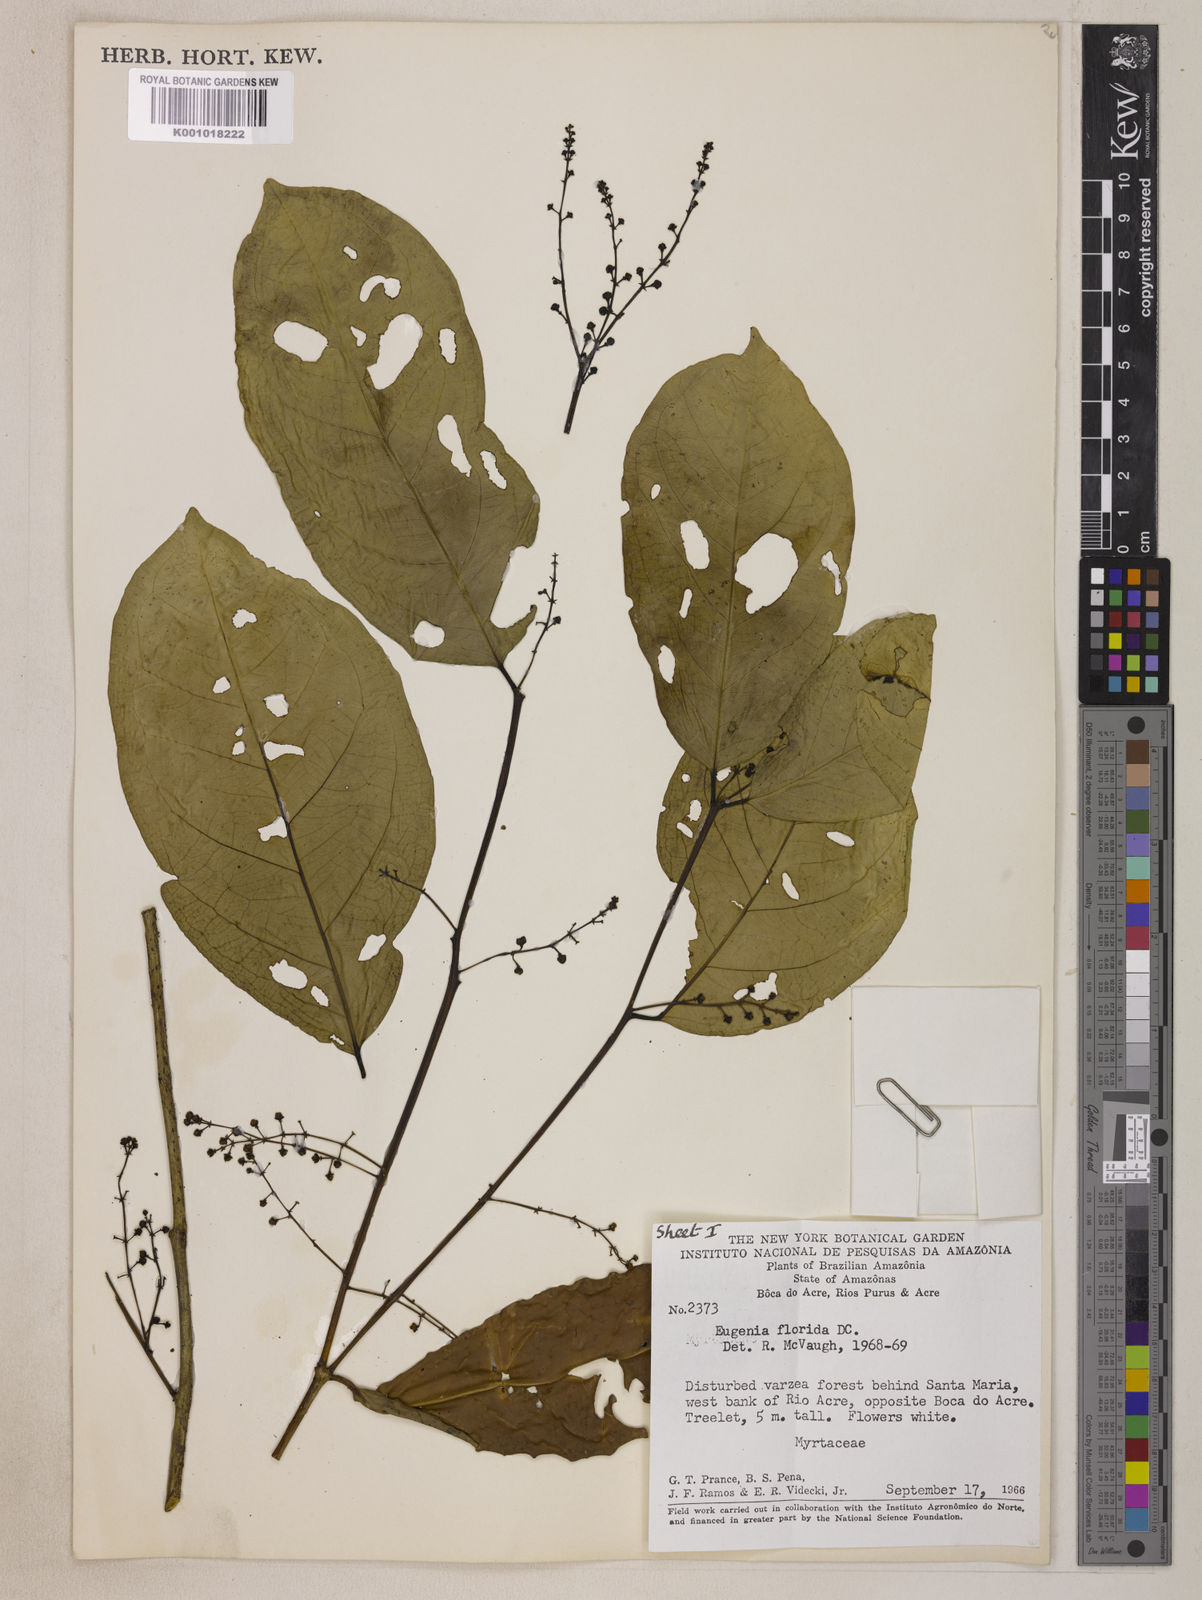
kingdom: Plantae
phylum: Tracheophyta
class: Magnoliopsida
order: Myrtales
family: Myrtaceae
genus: Eugenia
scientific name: Eugenia florida
